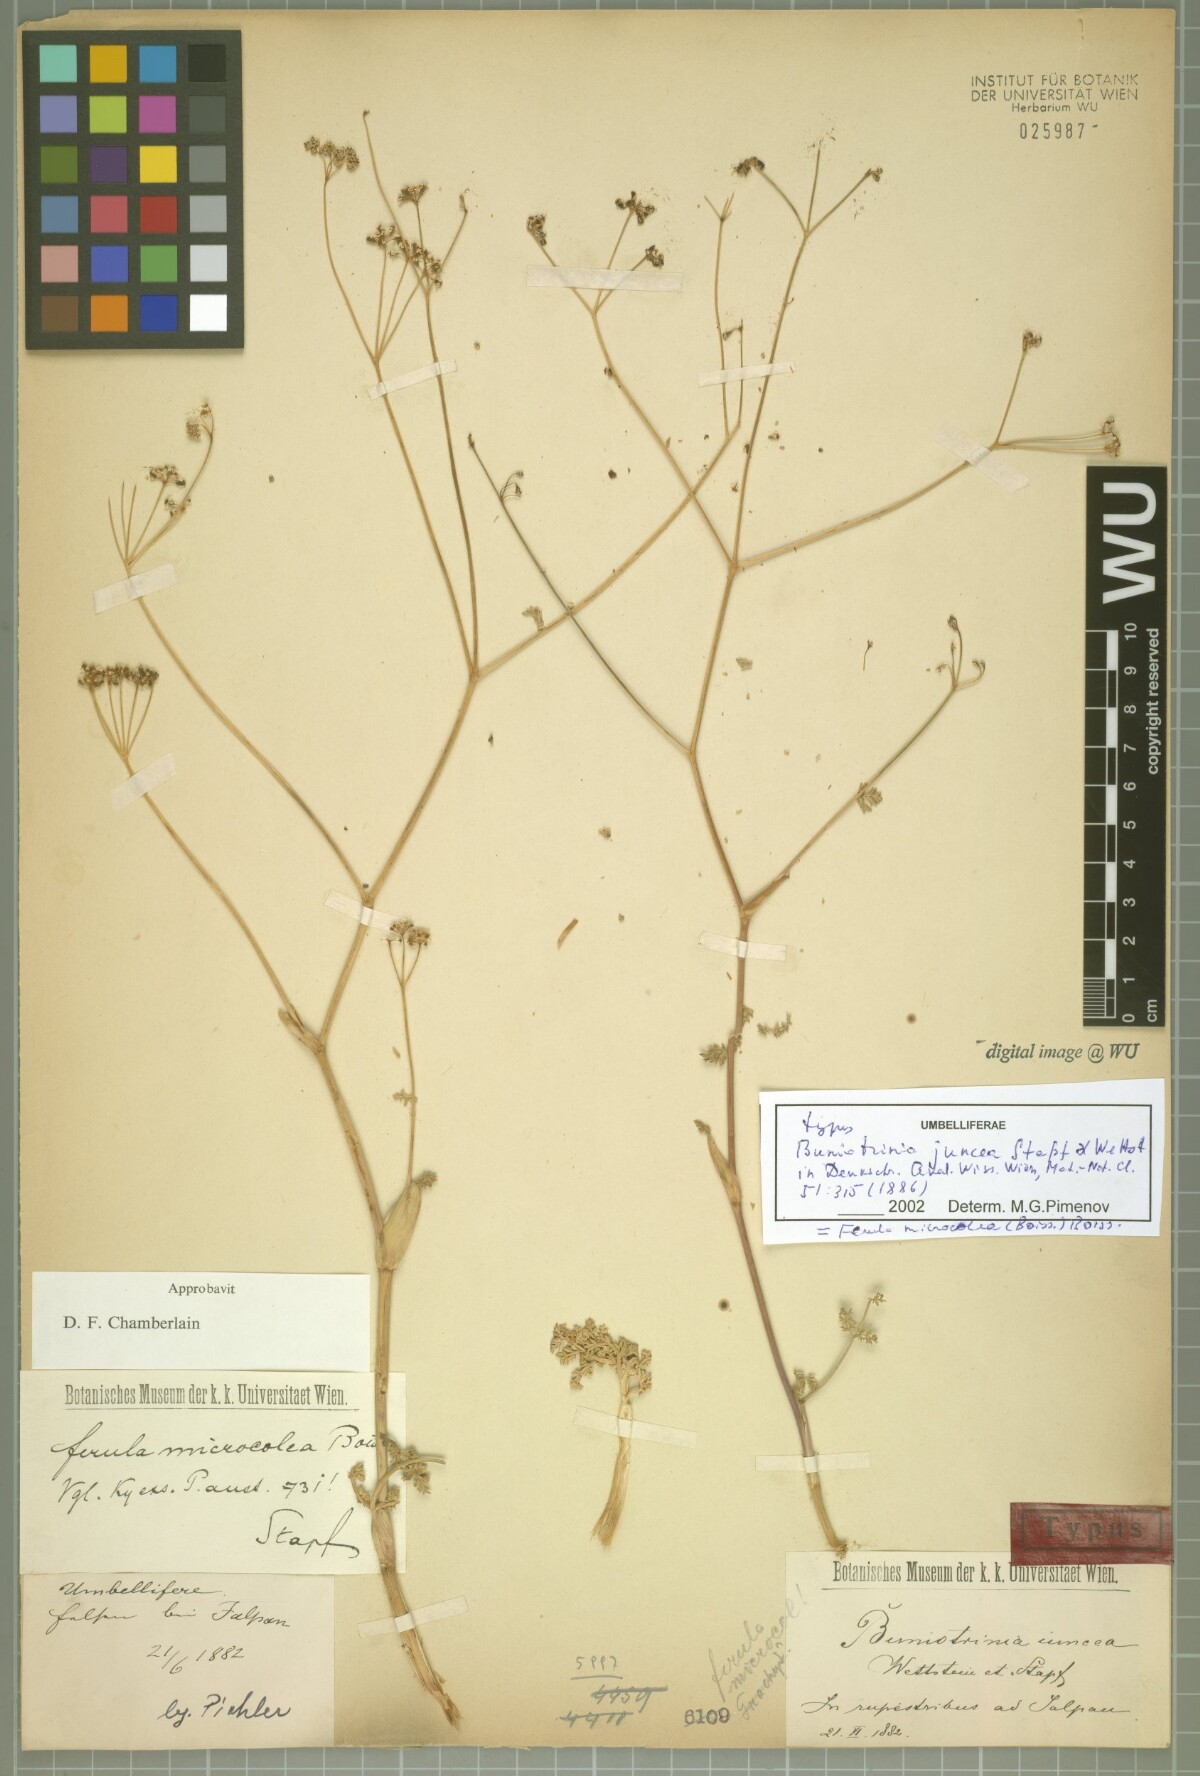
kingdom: Plantae
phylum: Tracheophyta
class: Magnoliopsida
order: Apiales
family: Apiaceae
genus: Ferula
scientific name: Ferula Buniotrinia juncea
